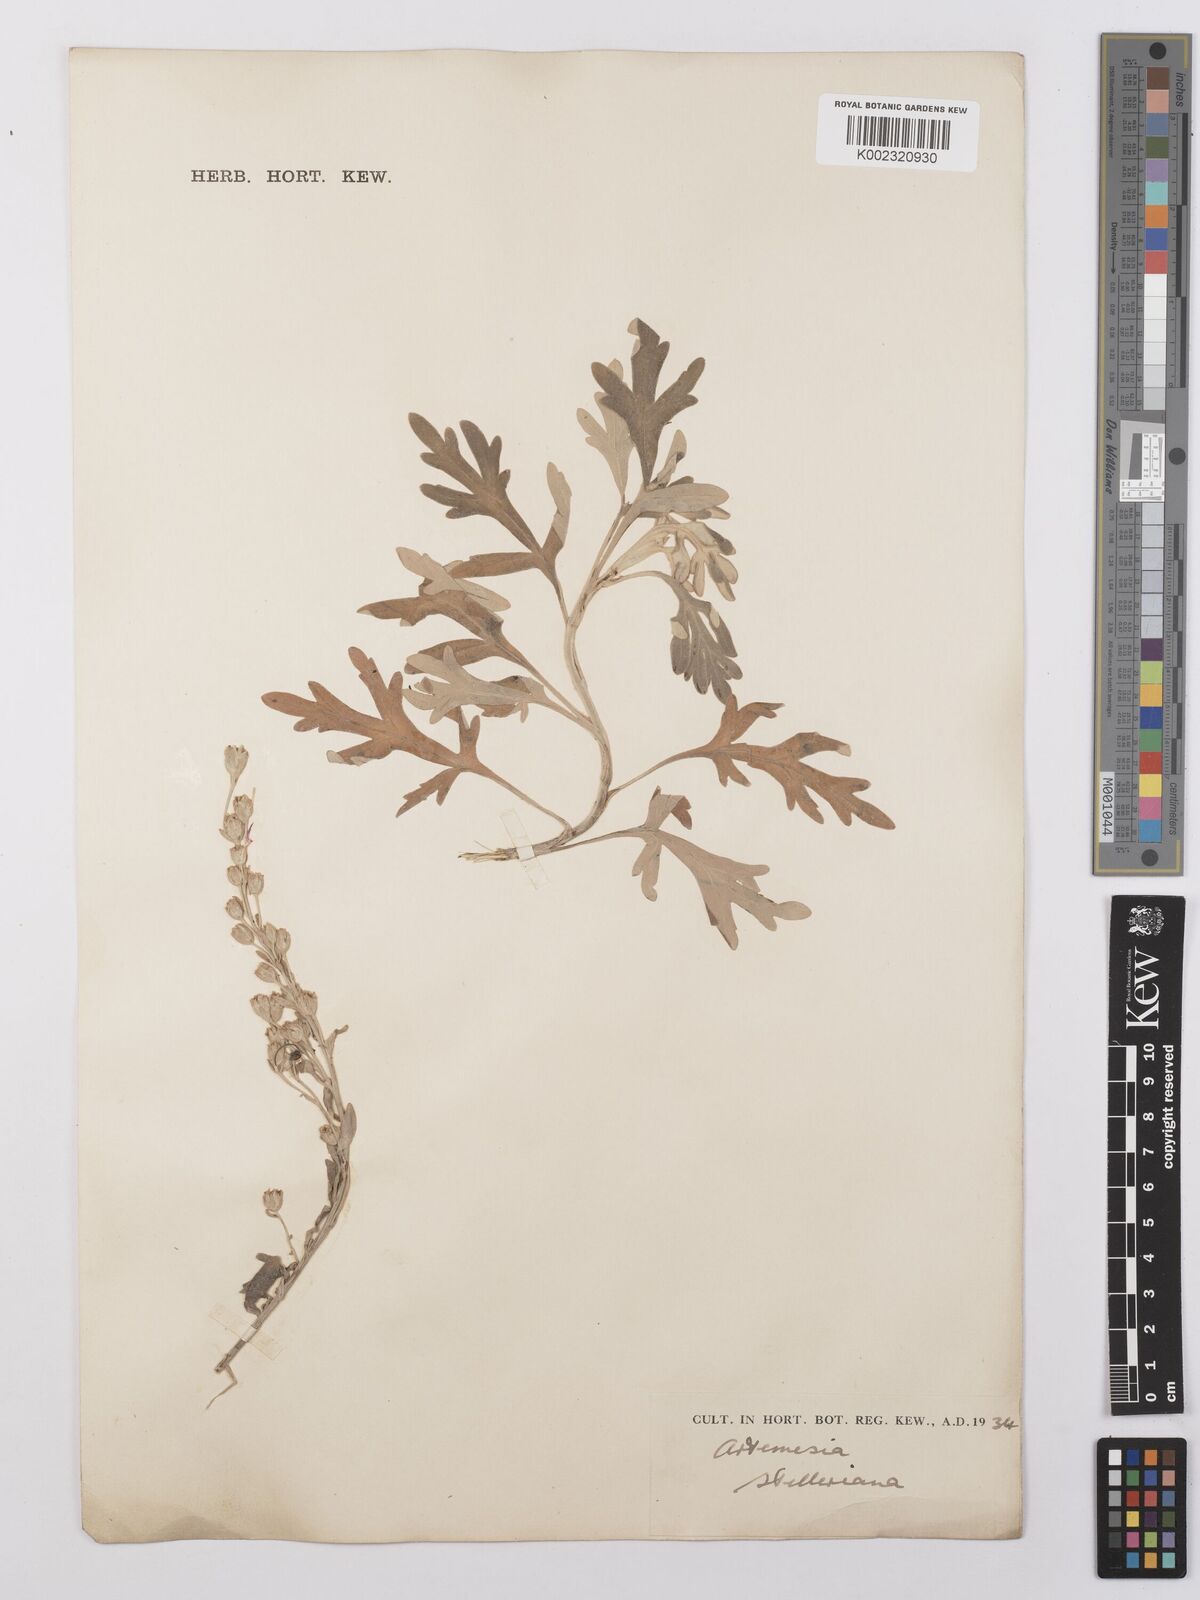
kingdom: Plantae
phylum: Tracheophyta
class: Magnoliopsida
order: Asterales
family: Asteraceae
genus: Artemisia
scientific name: Artemisia stelleriana
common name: Beach wormwood
